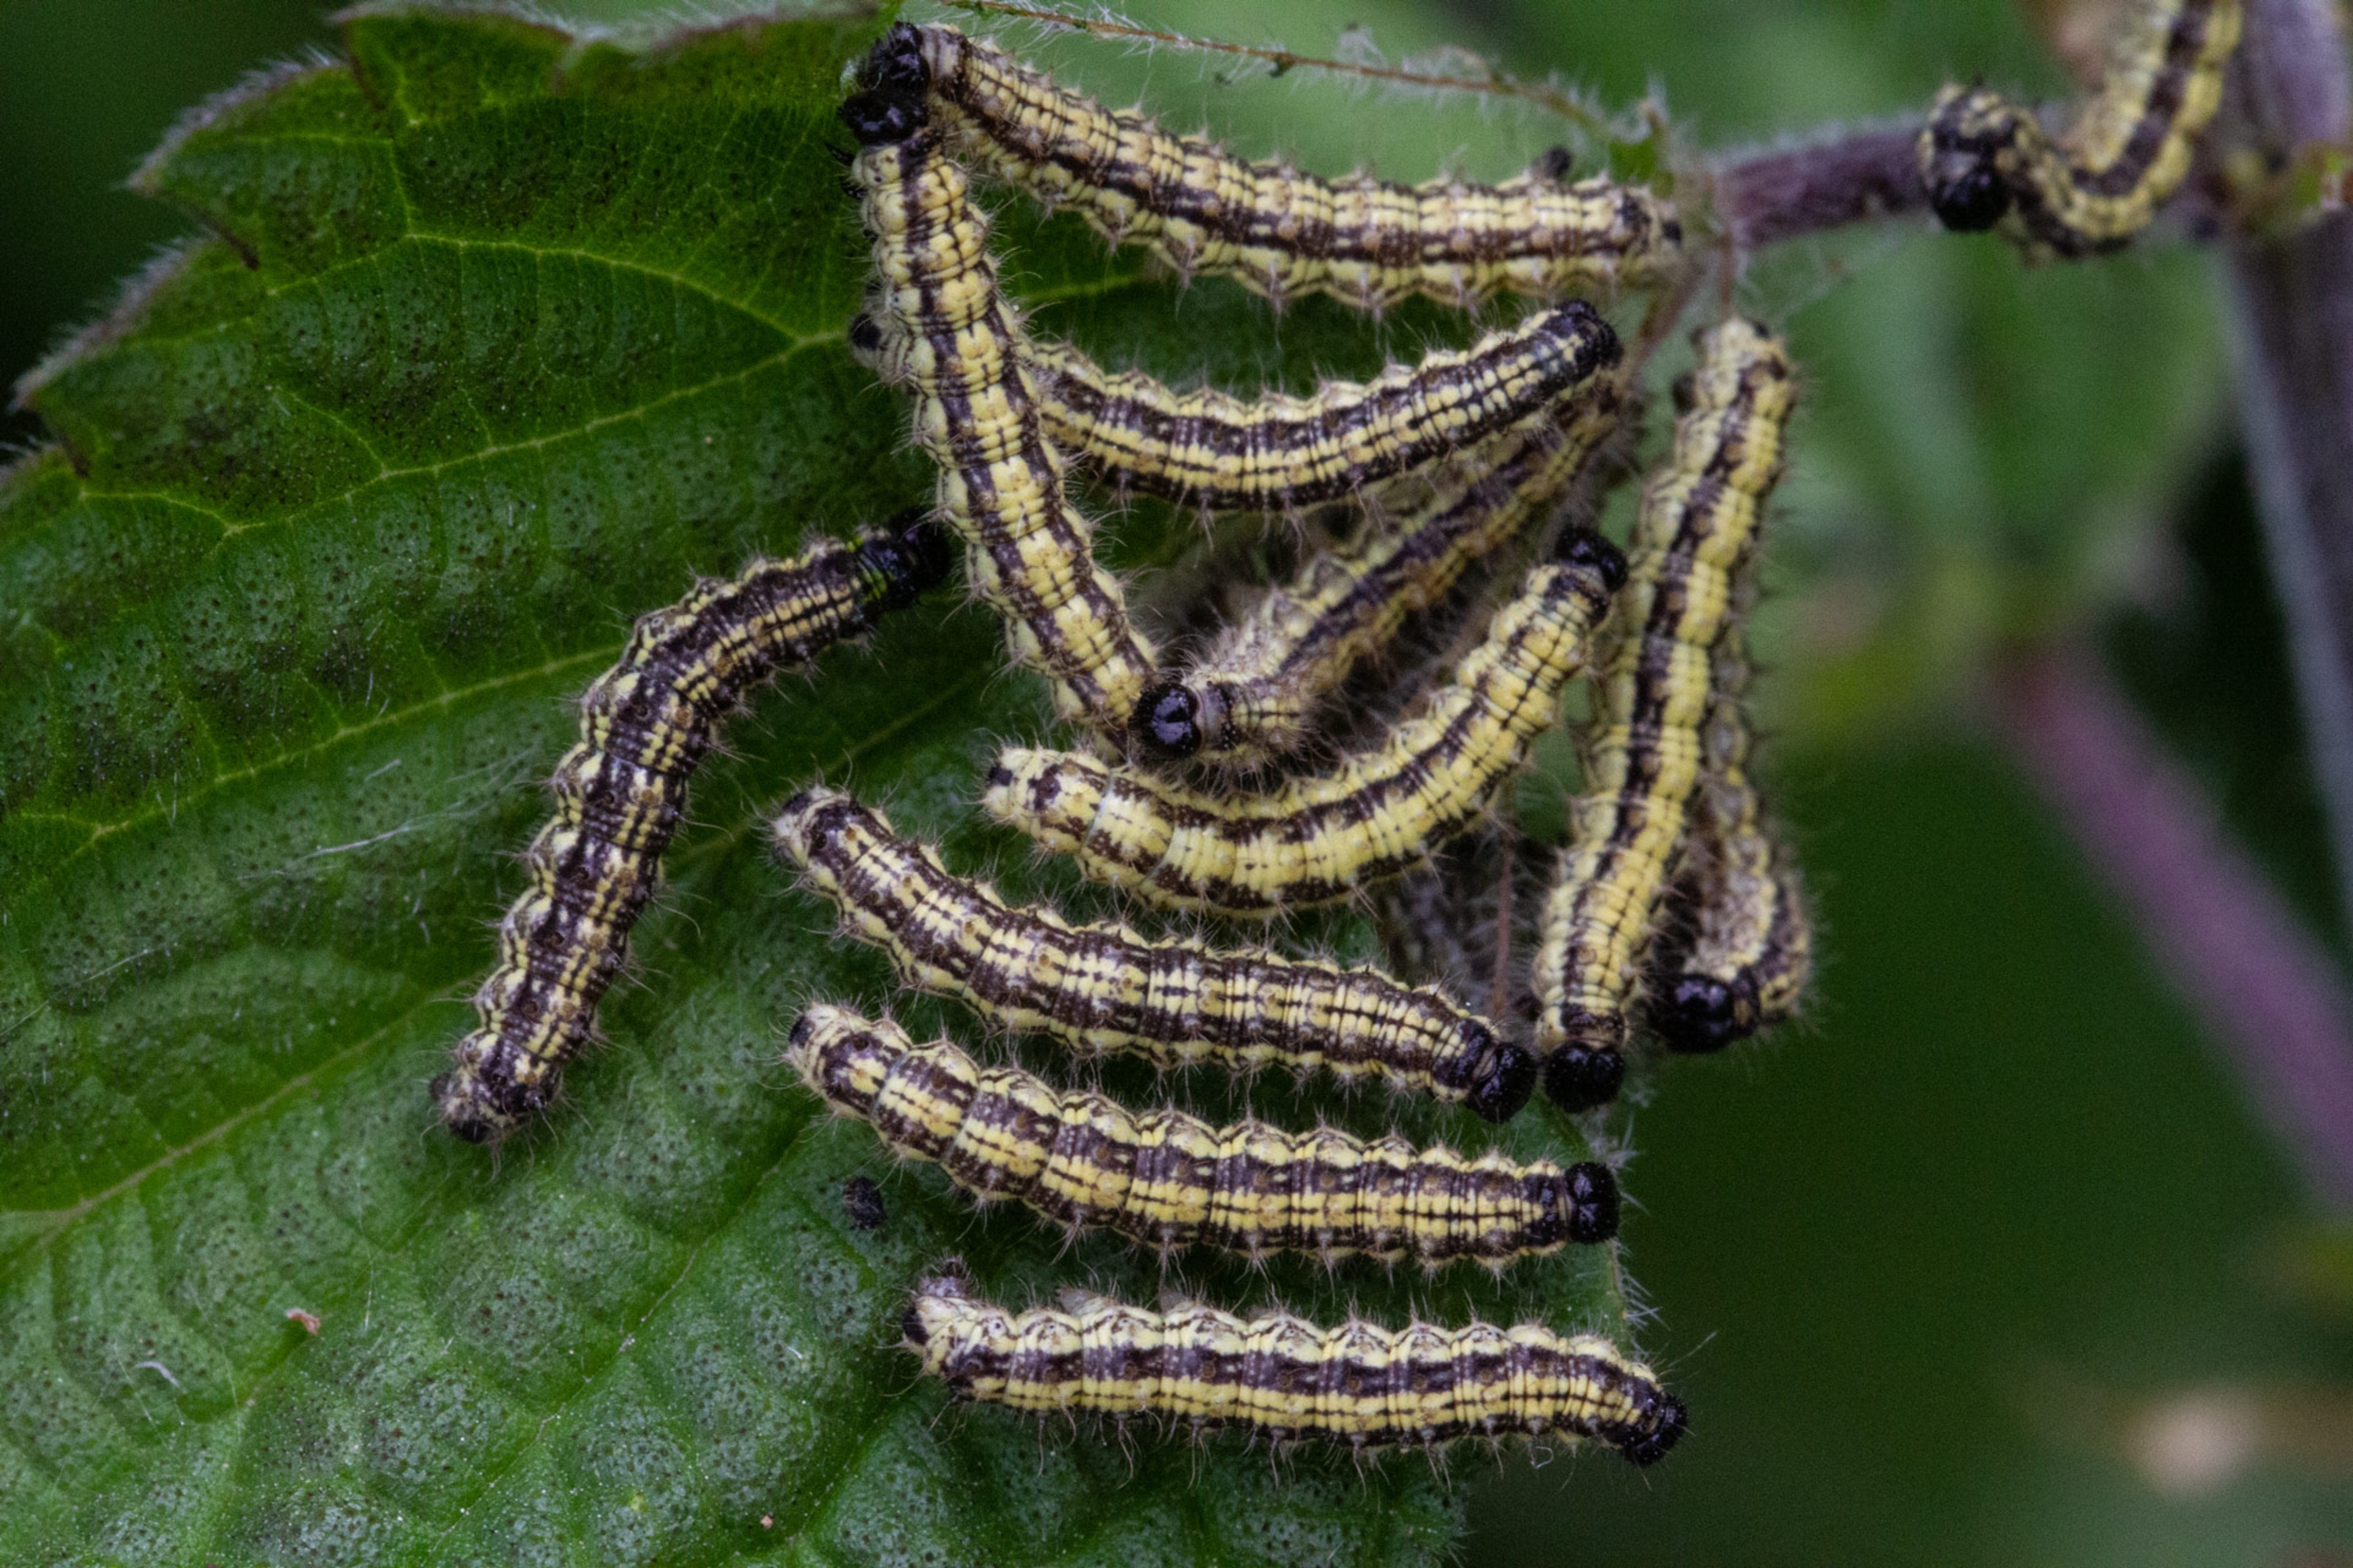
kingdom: Animalia
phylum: Arthropoda
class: Insecta
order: Lepidoptera
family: Nymphalidae
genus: Aglais
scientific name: Aglais urticae
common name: Nældens takvinge
